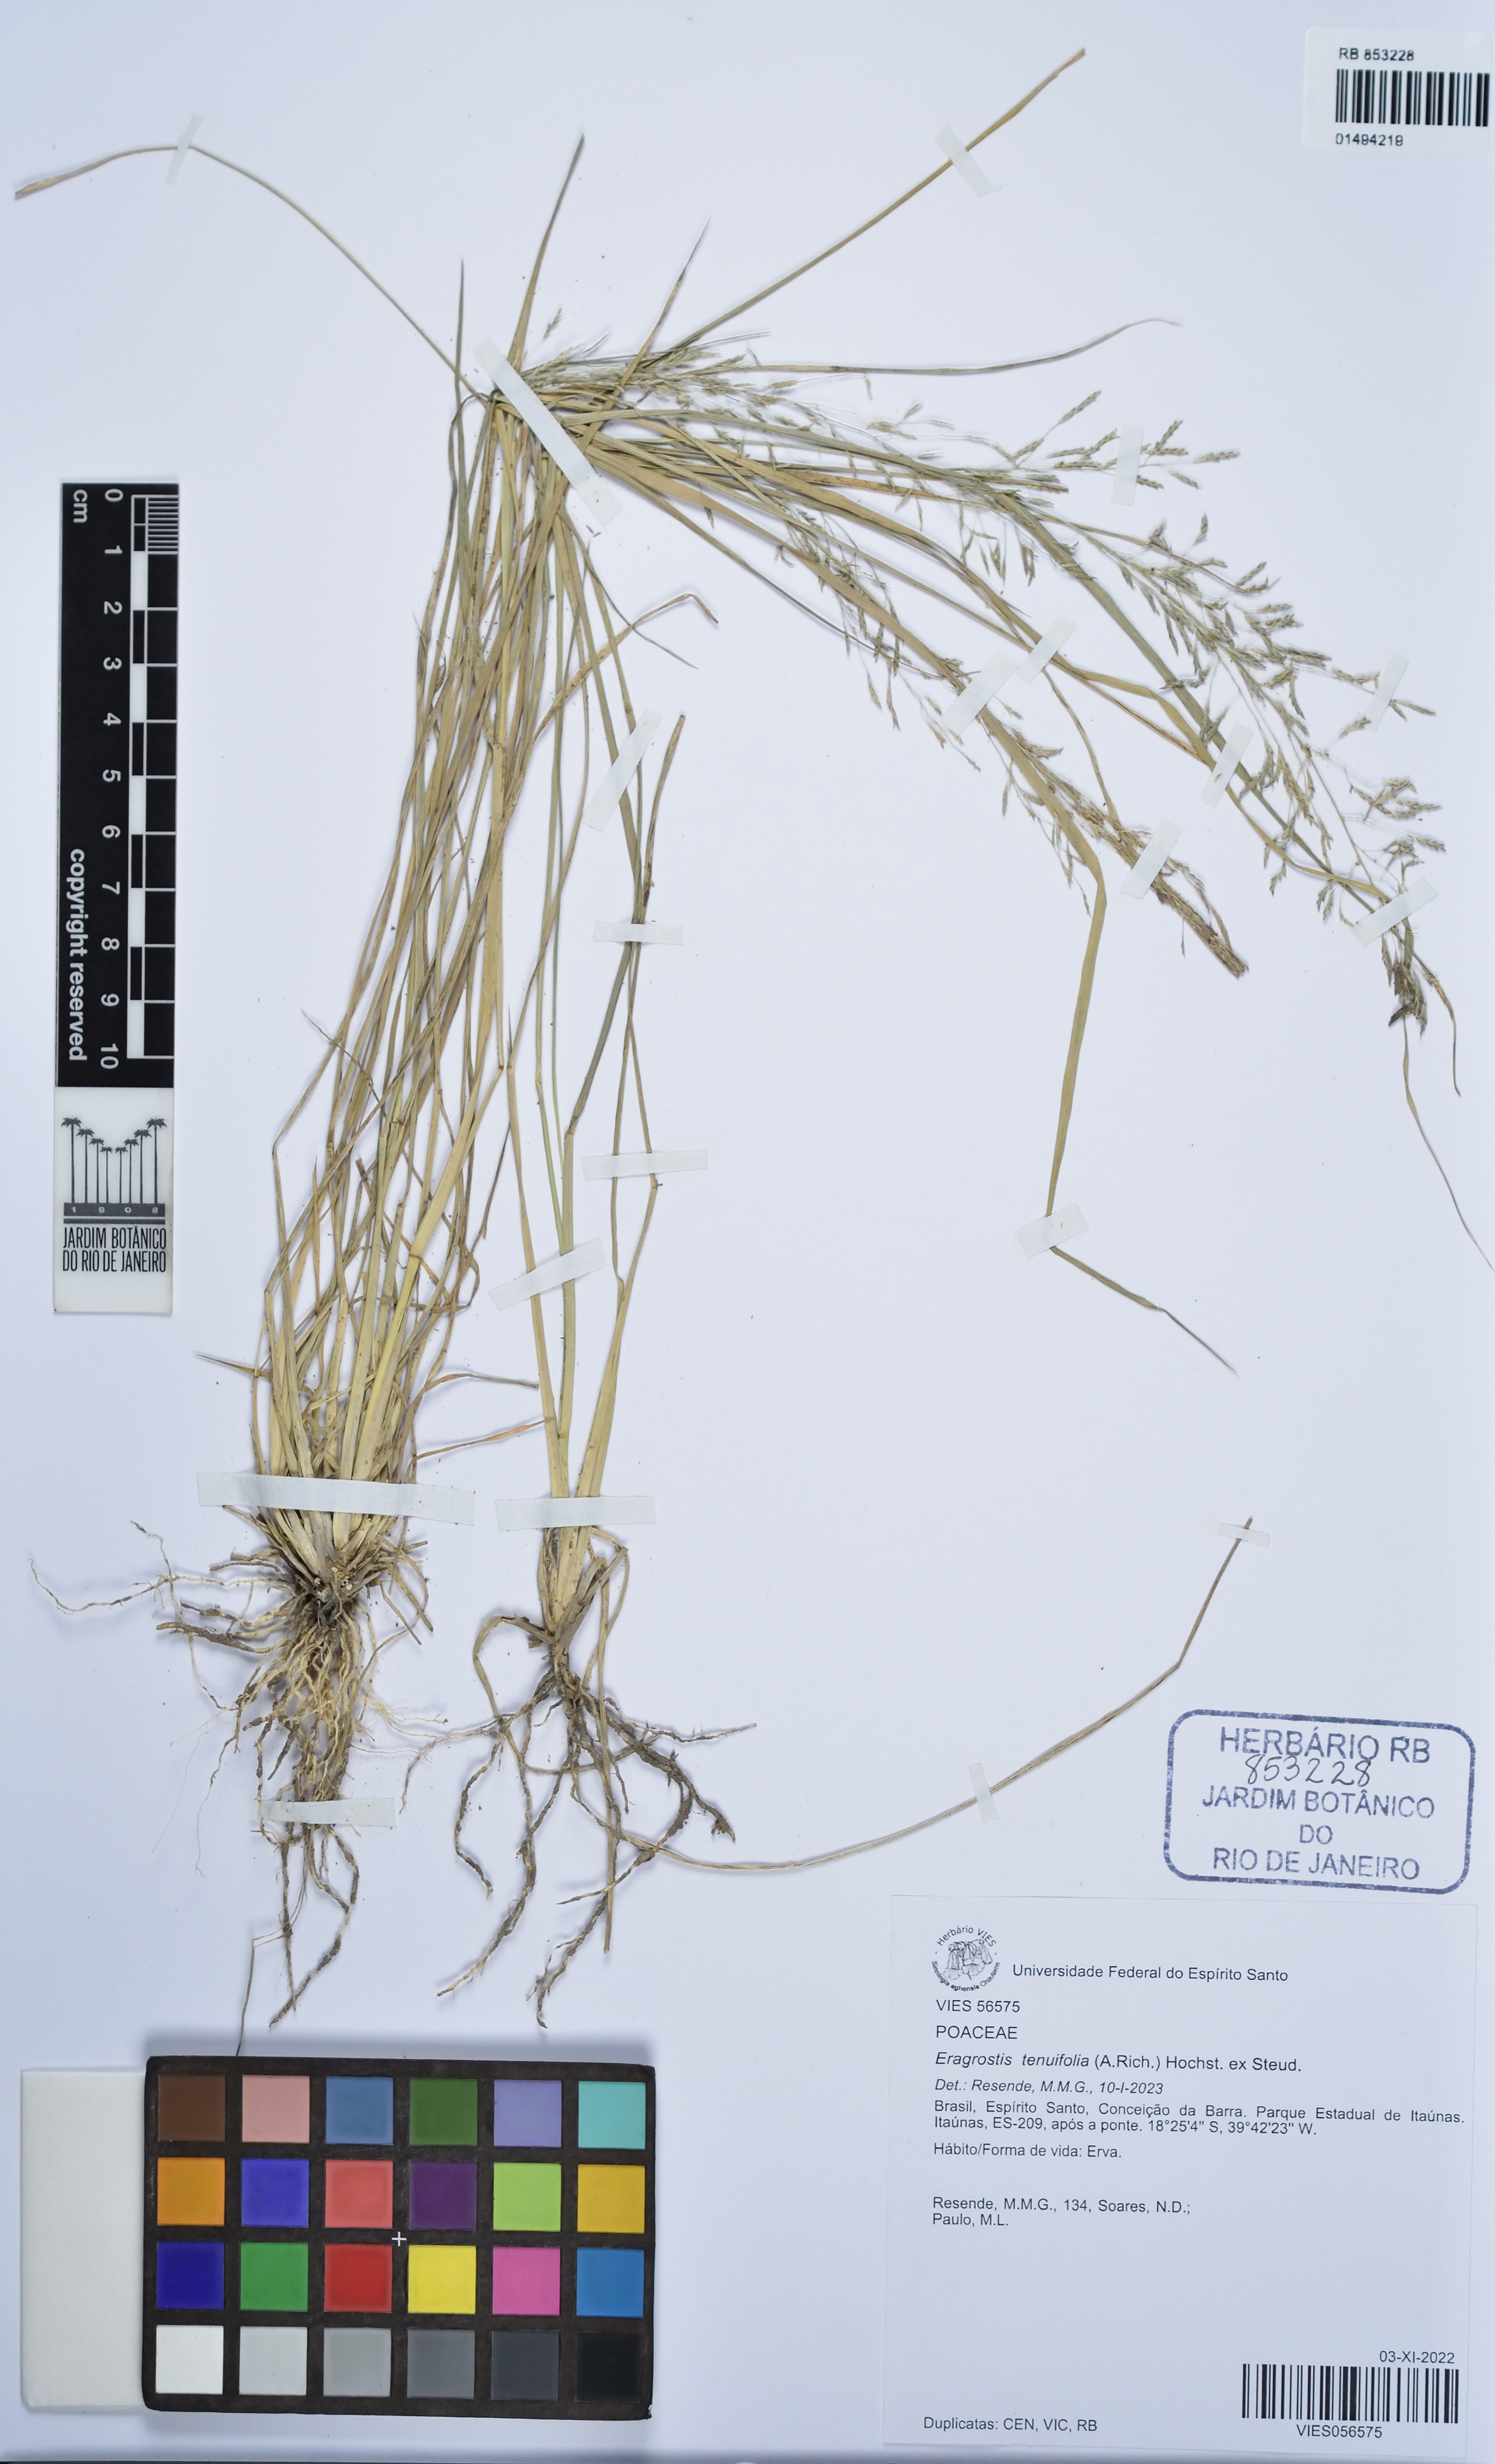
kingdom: Plantae
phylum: Tracheophyta
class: Liliopsida
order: Poales
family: Poaceae
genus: Eragrostis
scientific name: Eragrostis tenuifolia
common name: Elastic grass
